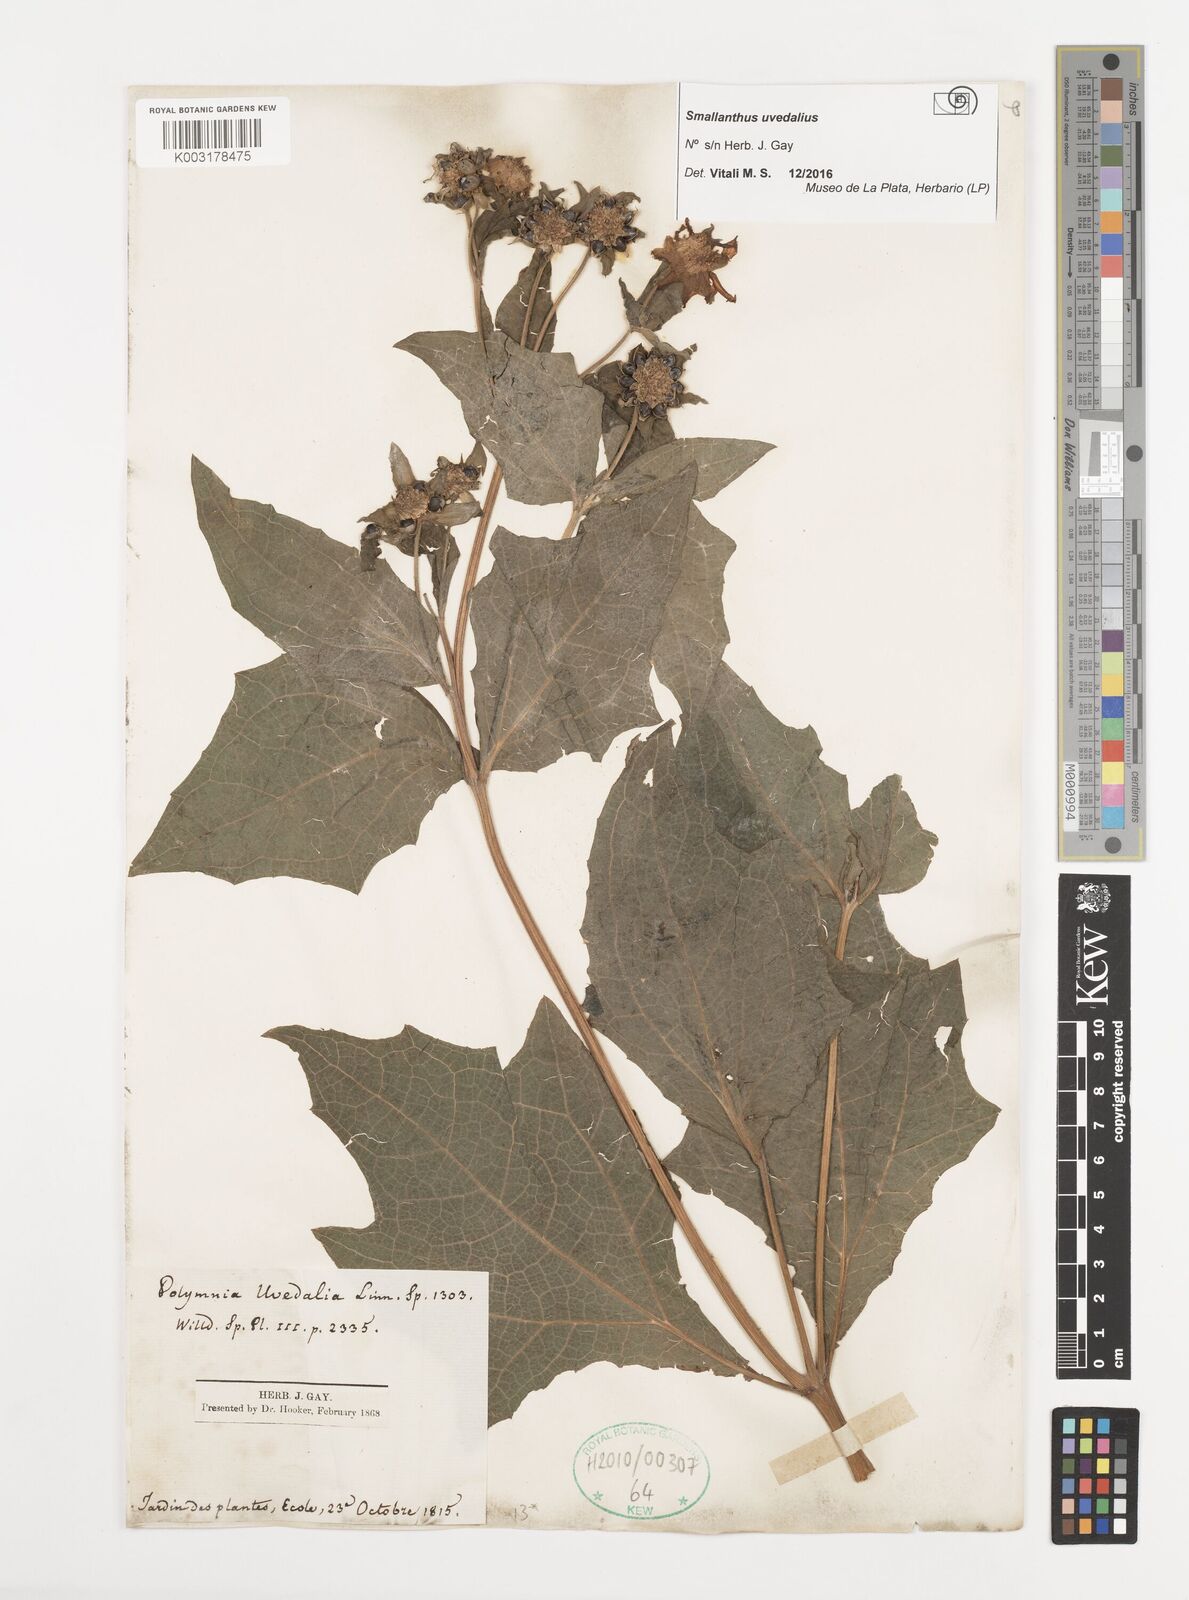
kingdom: Plantae
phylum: Tracheophyta
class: Magnoliopsida
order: Asterales
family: Asteraceae
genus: Smallanthus
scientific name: Smallanthus
